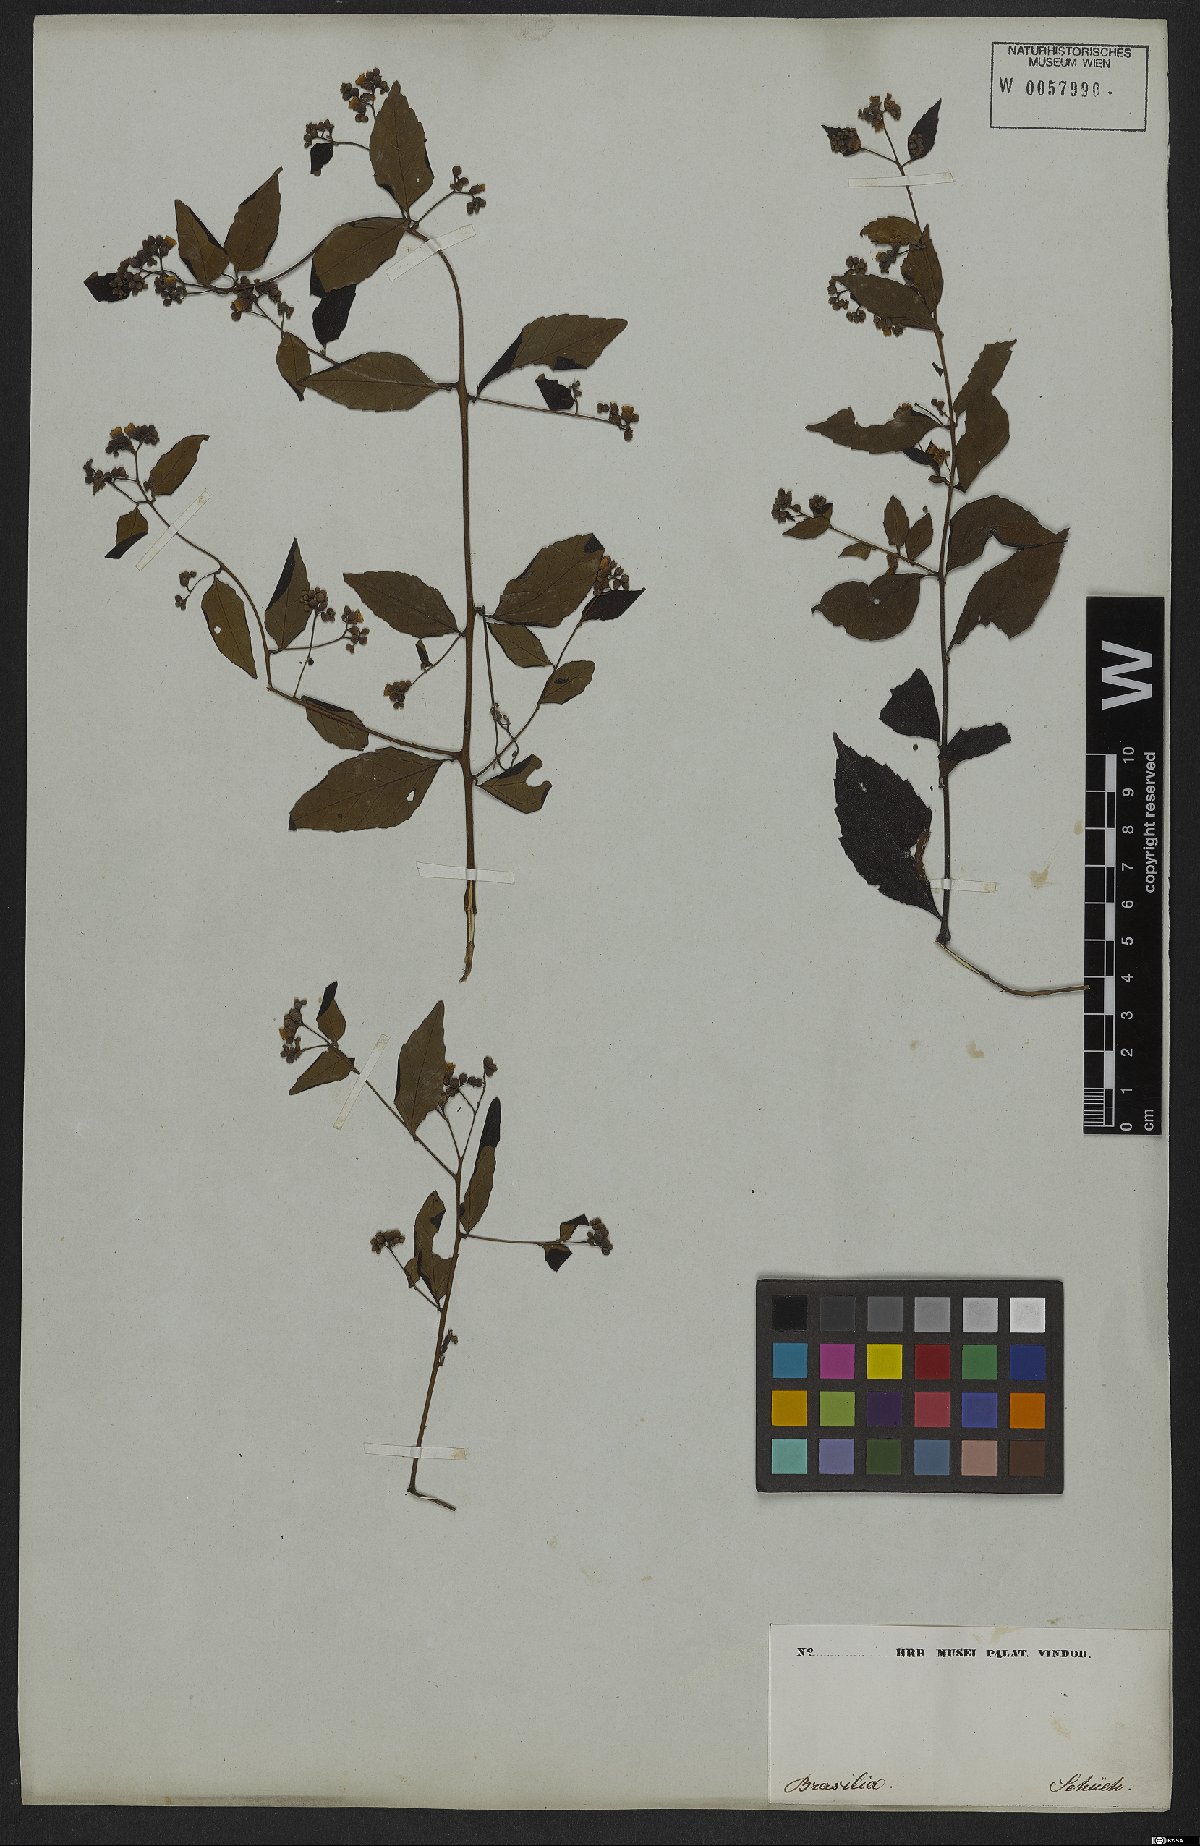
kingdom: Plantae
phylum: Tracheophyta
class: Magnoliopsida
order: Boraginales
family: Cordiaceae
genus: Varronia
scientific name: Varronia discolor
